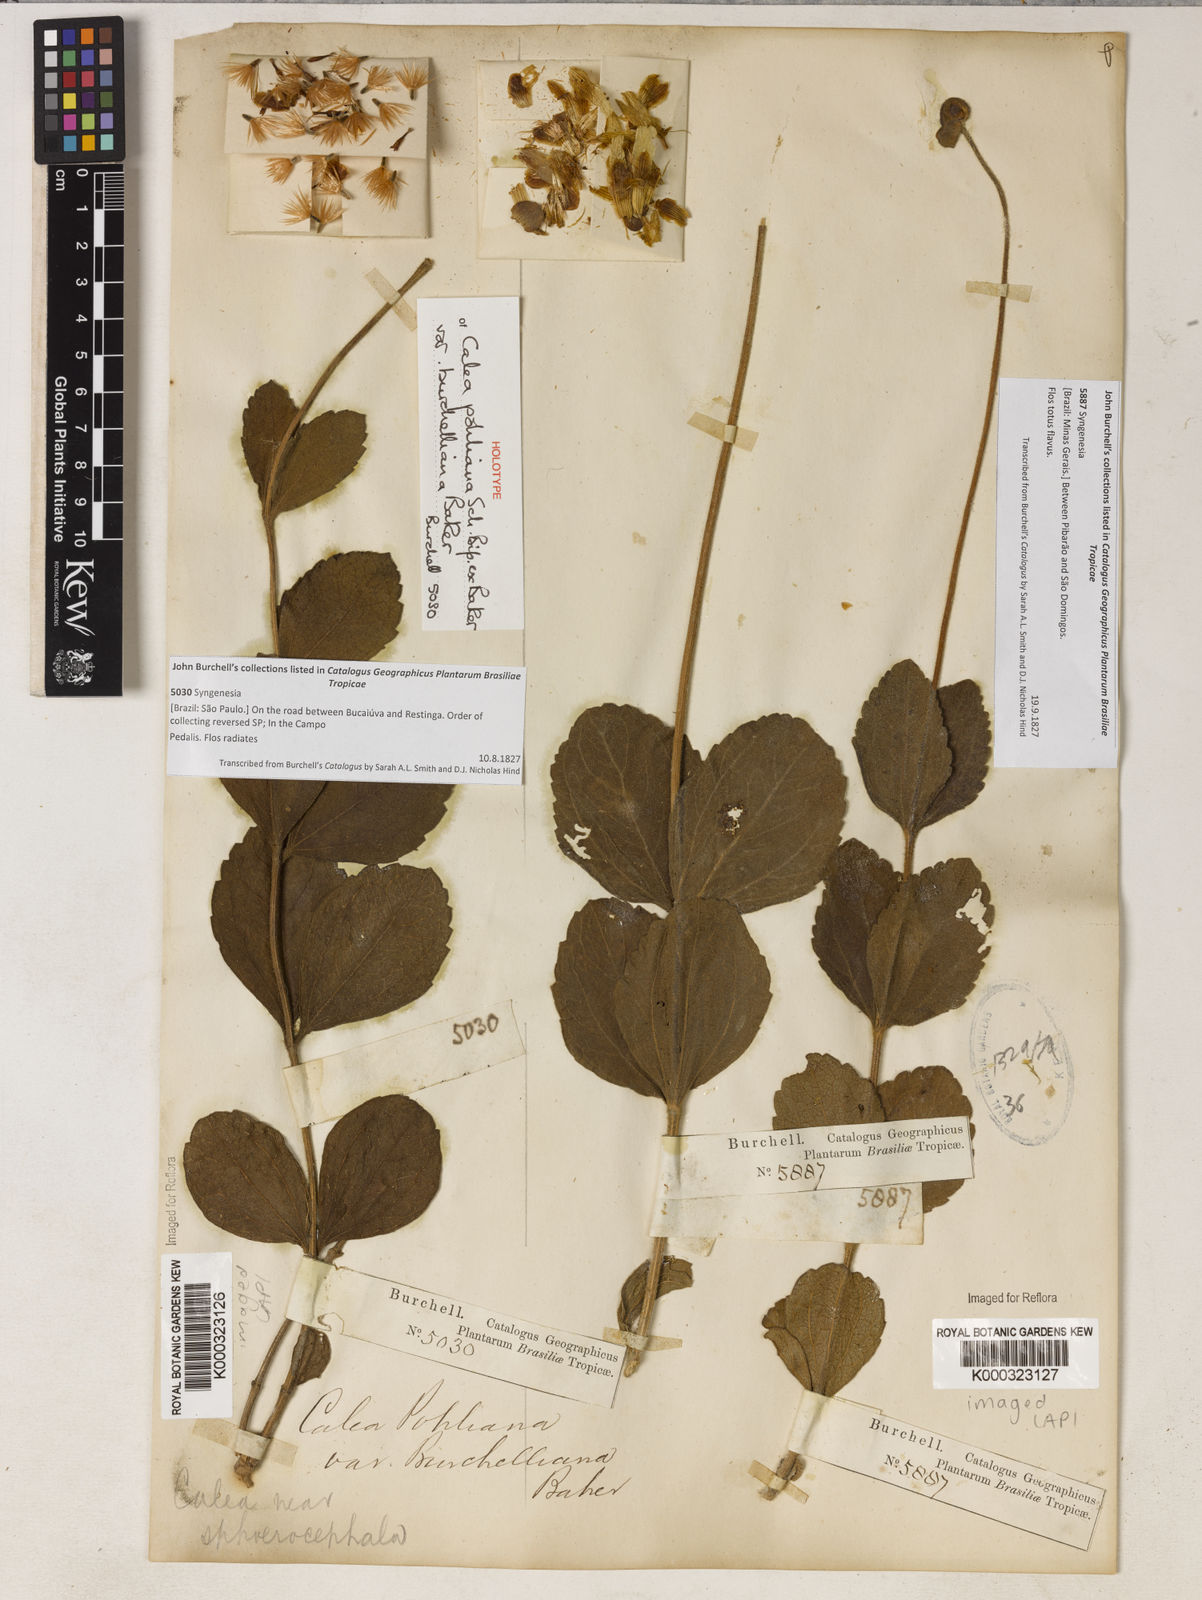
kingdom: Plantae
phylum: Tracheophyta
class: Magnoliopsida
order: Asterales
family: Asteraceae
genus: Calea
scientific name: Calea pohliana
